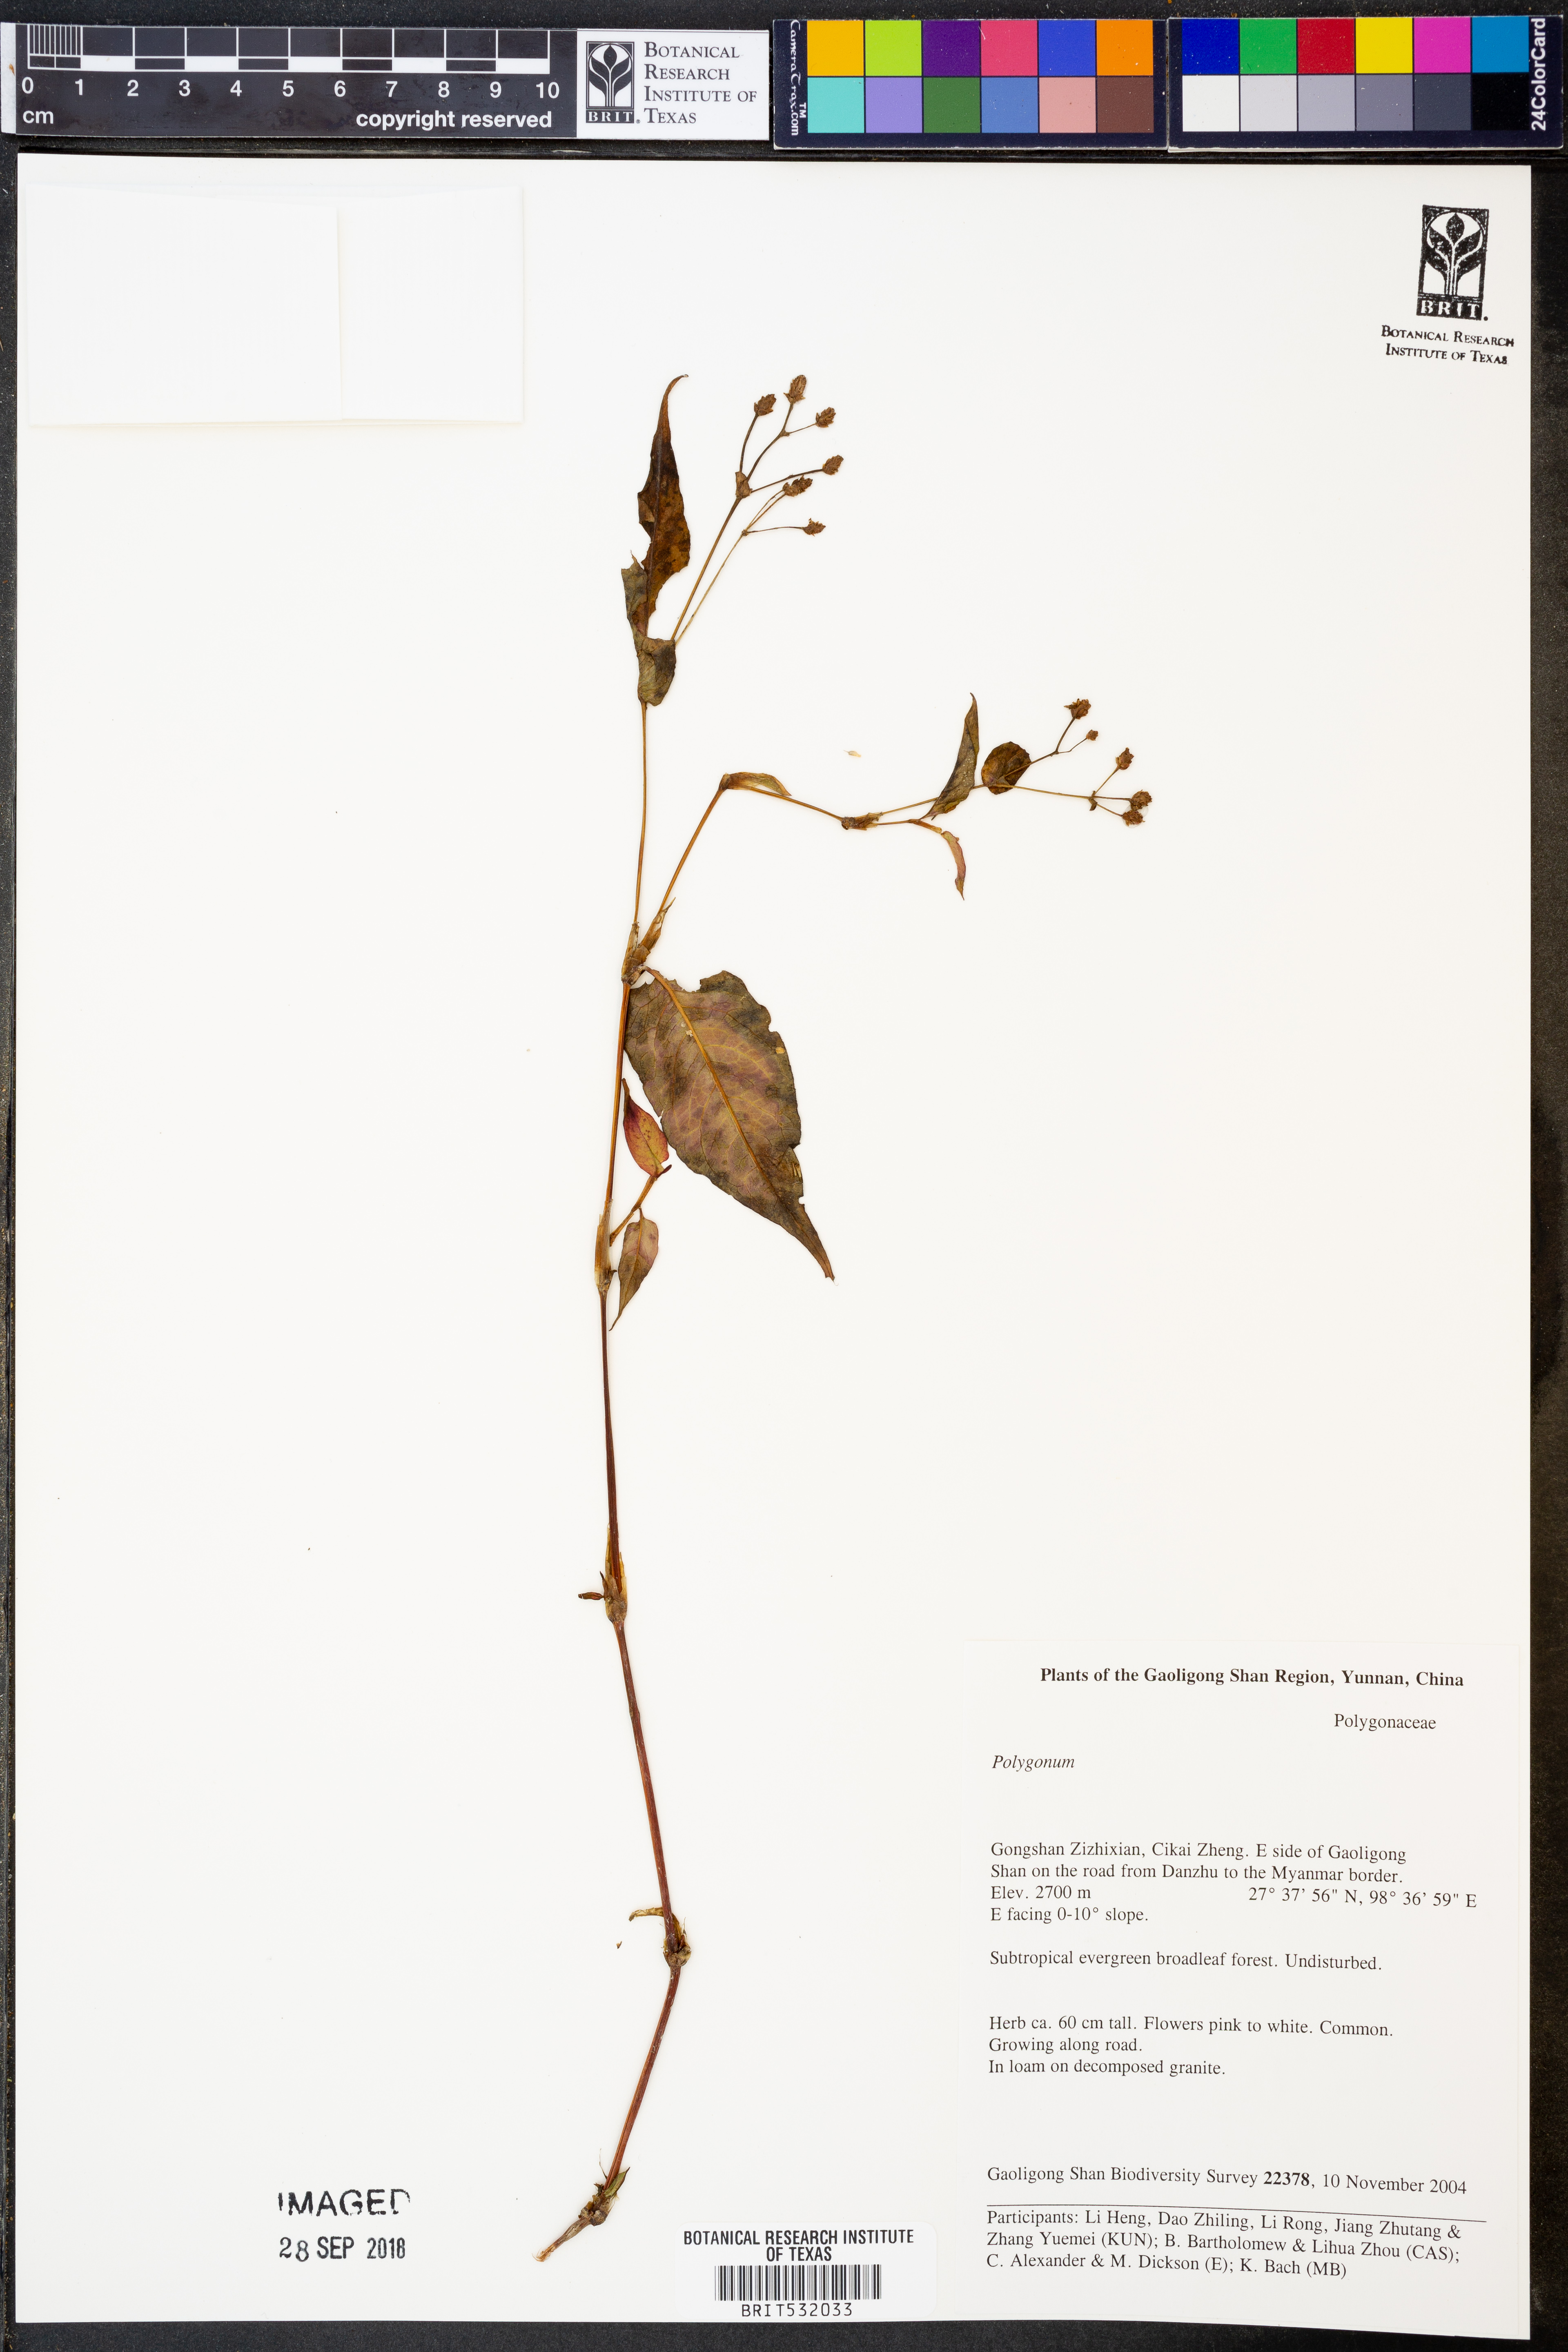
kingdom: Plantae
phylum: Tracheophyta
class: Magnoliopsida
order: Caryophyllales
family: Polygonaceae
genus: Polygonum
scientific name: Polygonum
